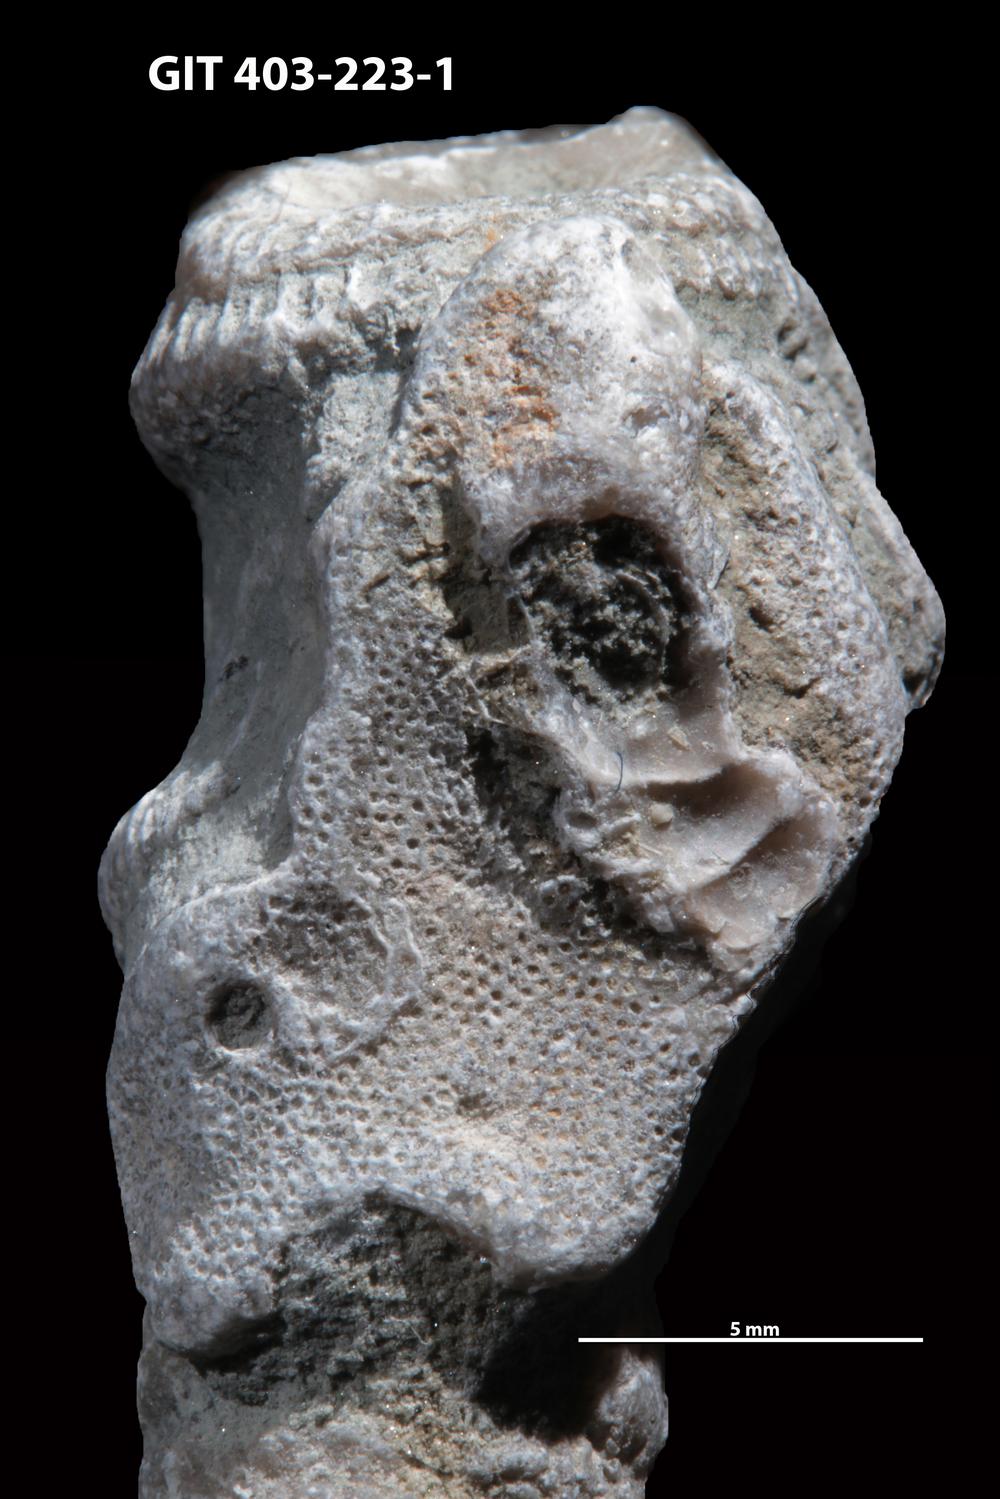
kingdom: Animalia
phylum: Bryozoa
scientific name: Bryozoa
